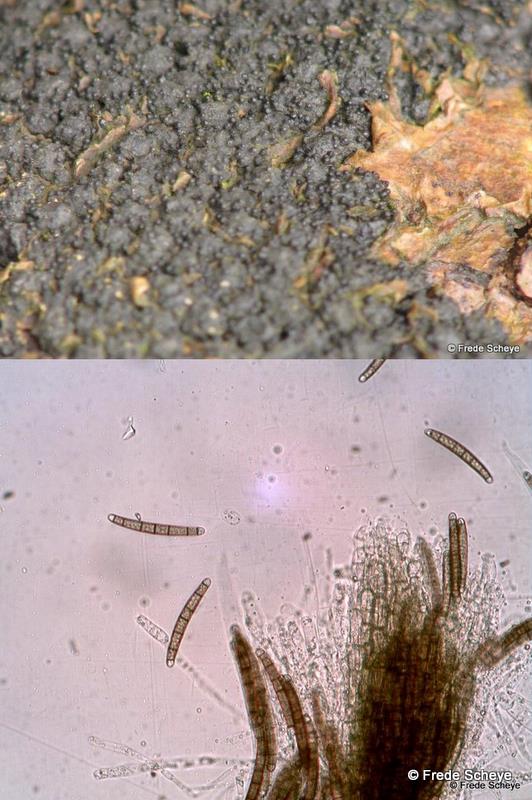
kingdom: Fungi
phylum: Ascomycota
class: Sordariomycetes
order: Xylariales
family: Melogrammataceae
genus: Melogramma
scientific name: Melogramma spiniferum
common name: bøgefod-kulhals
